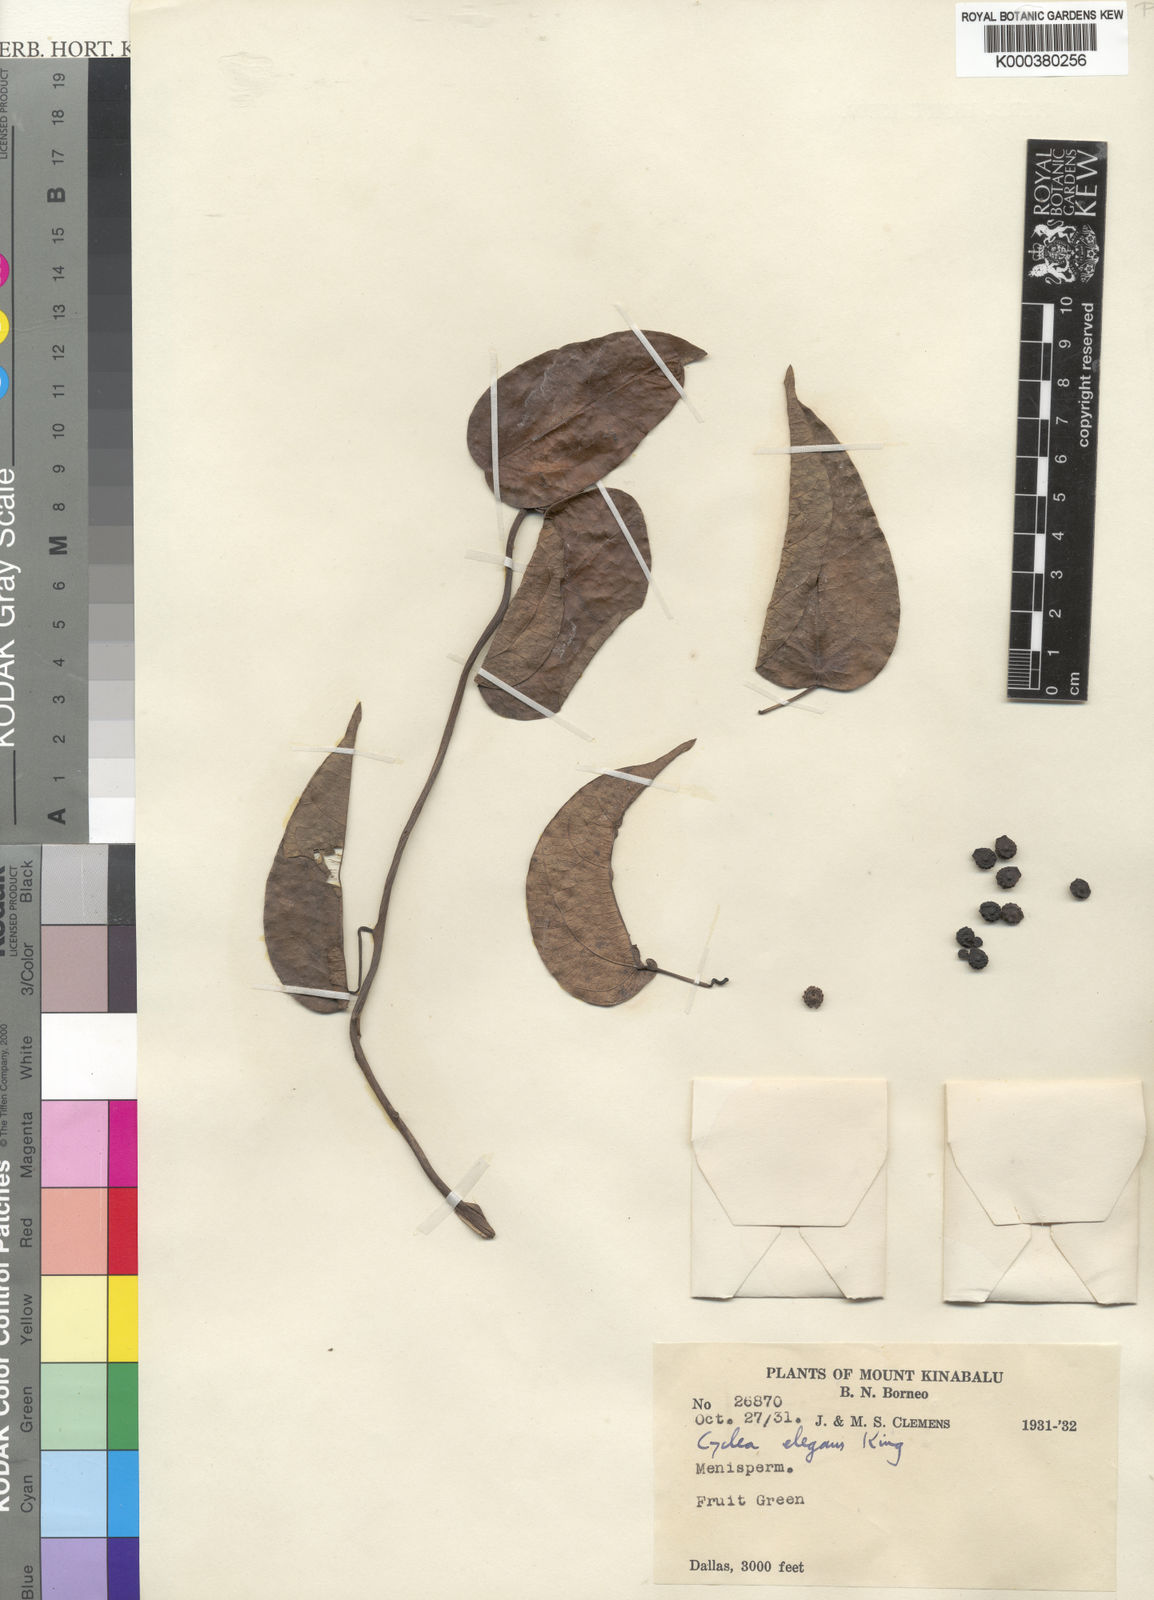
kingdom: Plantae
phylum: Tracheophyta
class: Magnoliopsida
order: Ranunculales
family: Menispermaceae
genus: Cyclea
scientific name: Cyclea elegans
